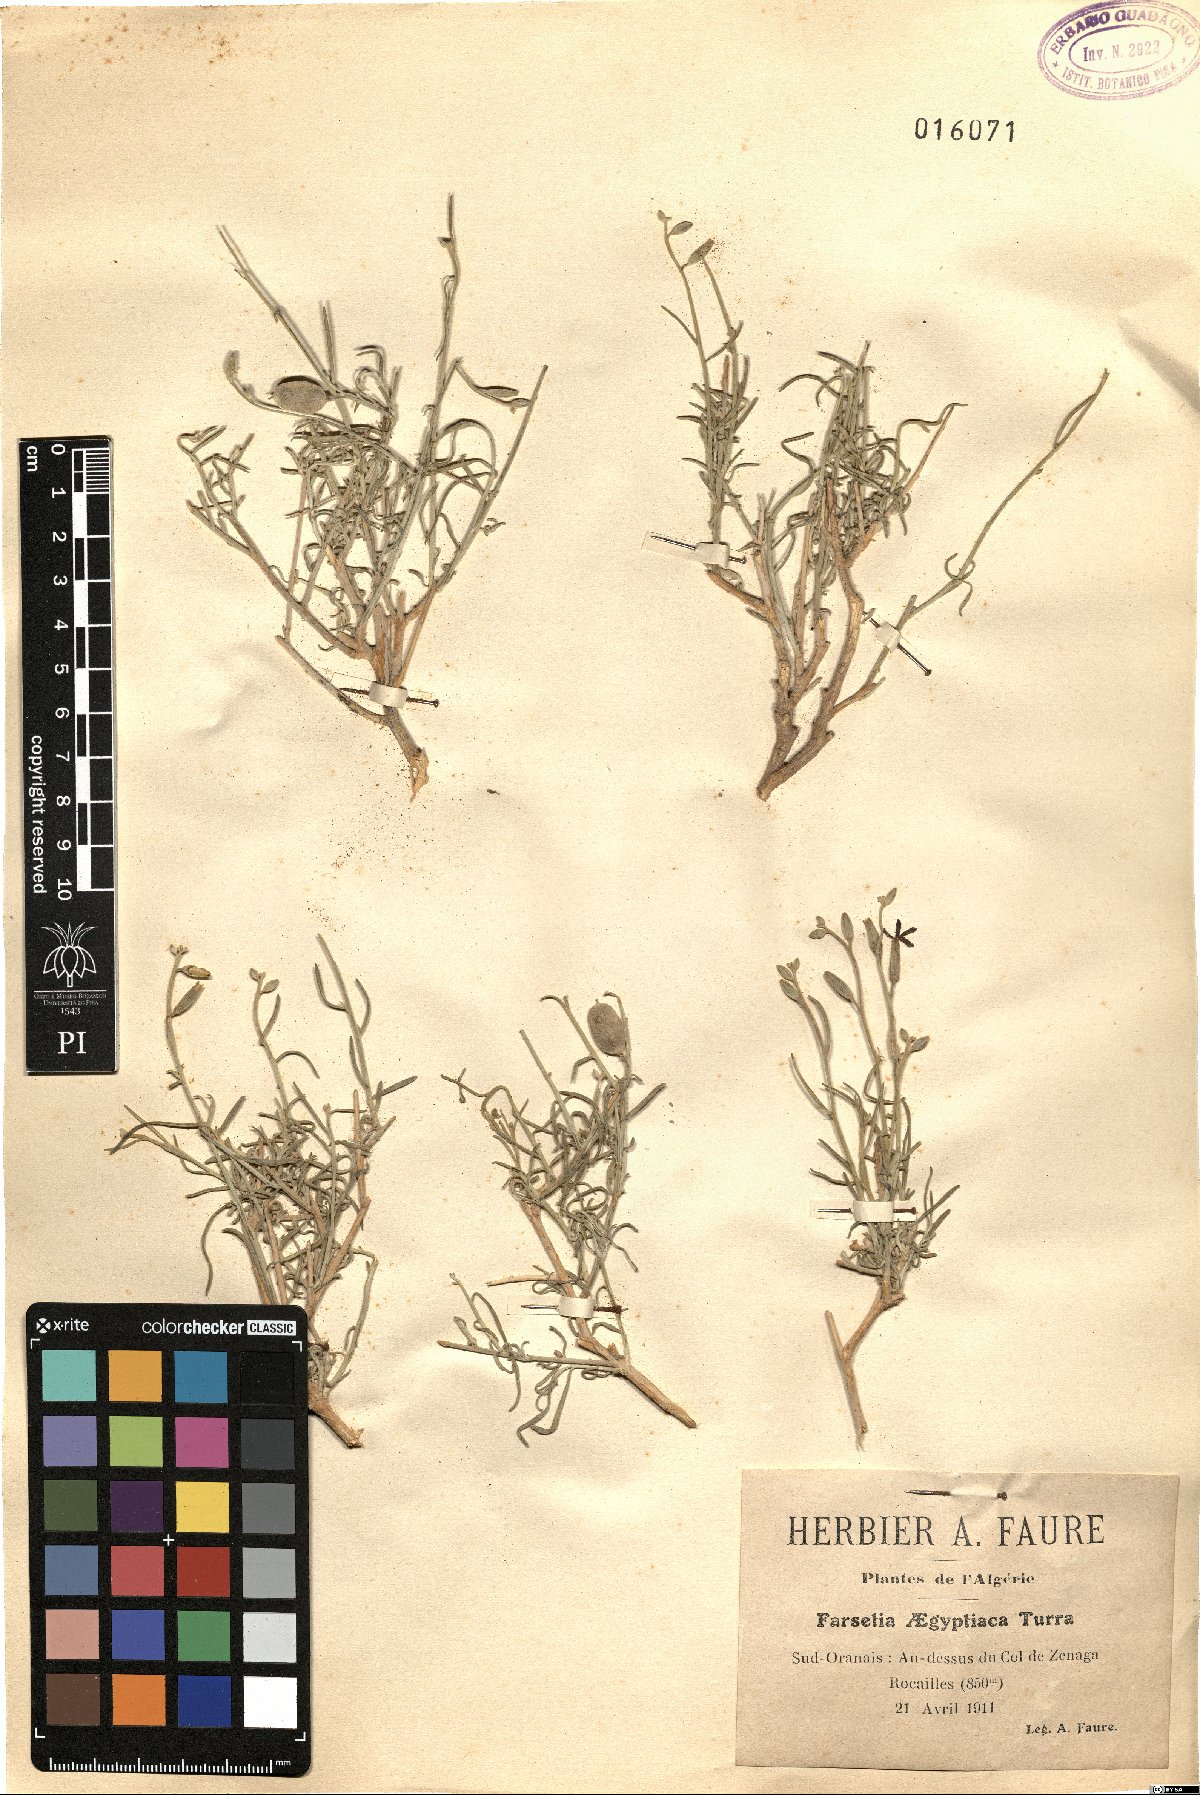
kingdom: Plantae
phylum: Tracheophyta
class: Magnoliopsida
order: Brassicales
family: Brassicaceae
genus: Farsetia
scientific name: Farsetia aegyptia
